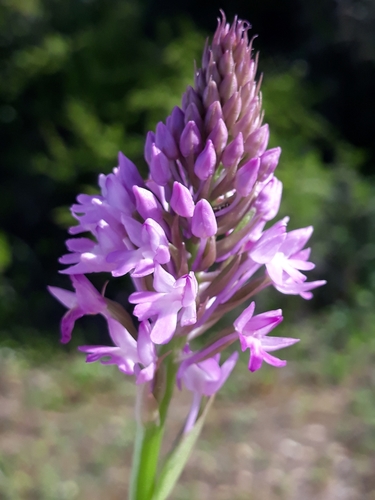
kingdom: Plantae
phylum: Tracheophyta
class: Liliopsida
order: Asparagales
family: Orchidaceae
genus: Anacamptis
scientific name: Anacamptis pyramidalis
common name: Pyramidal orchid
